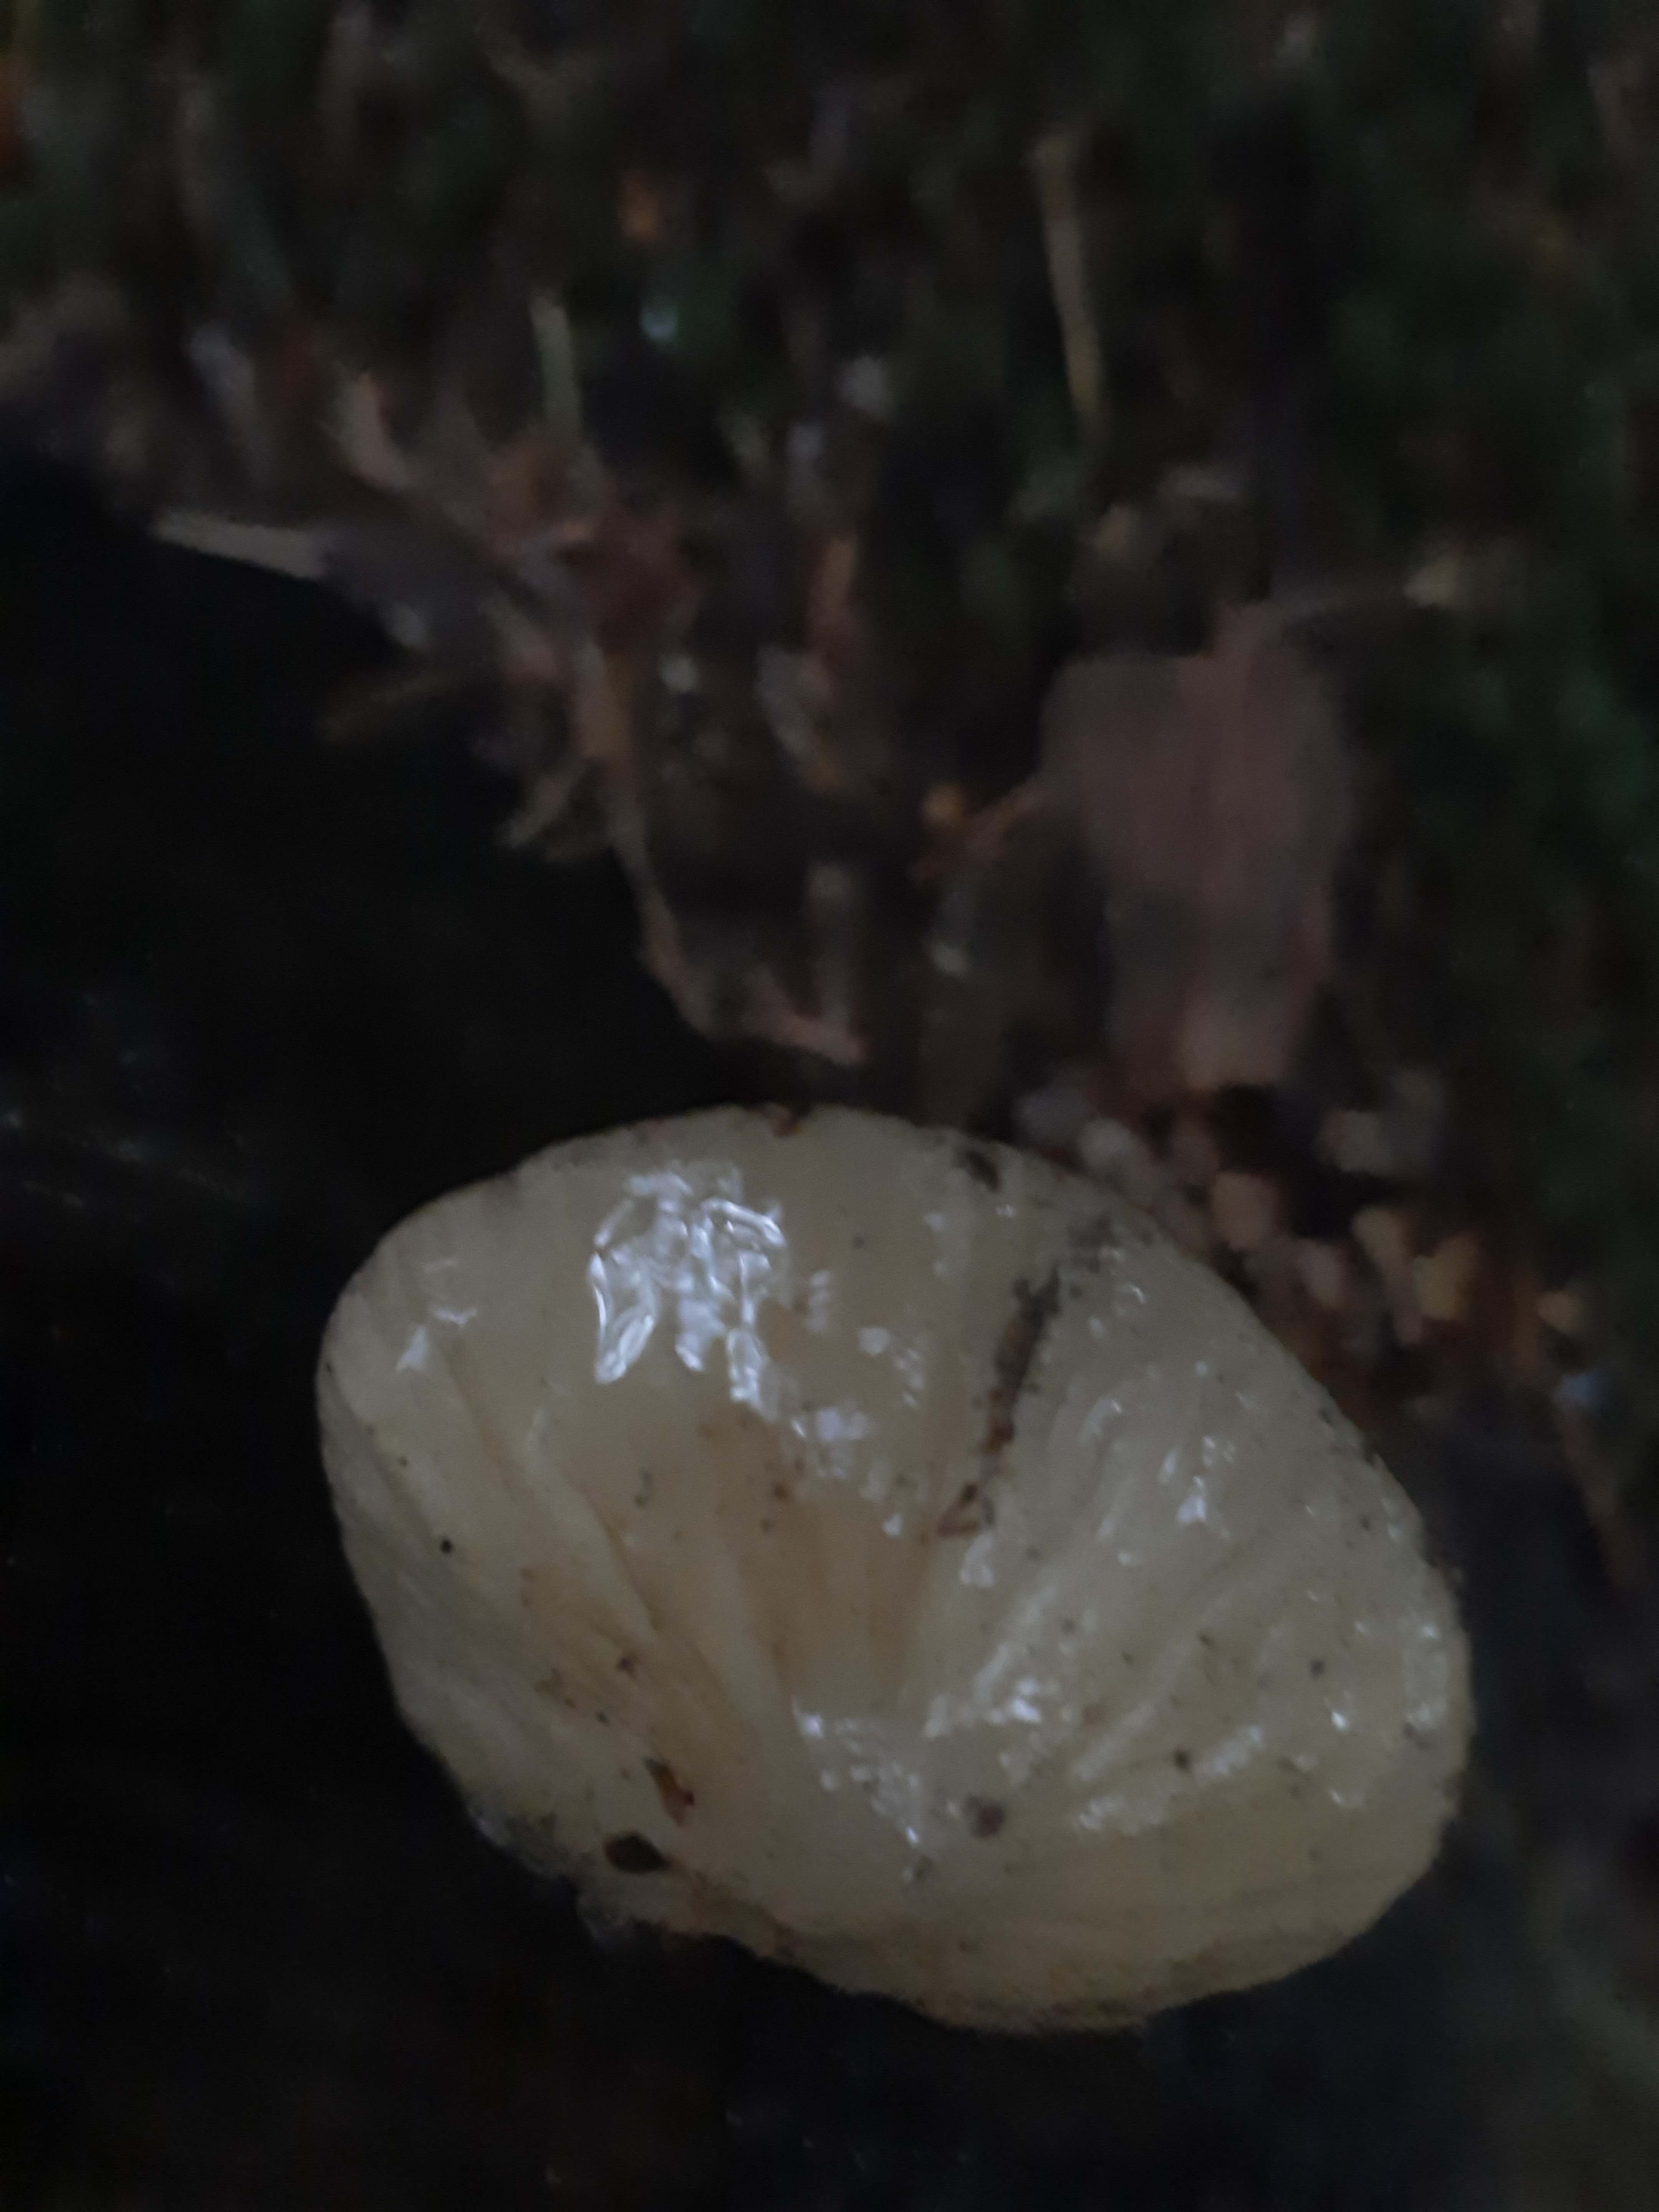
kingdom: Fungi
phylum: Basidiomycota
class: Agaricomycetes
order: Agaricales
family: Physalacriaceae
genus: Hymenopellis
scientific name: Hymenopellis radicata
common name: almindelig pælerodshat
